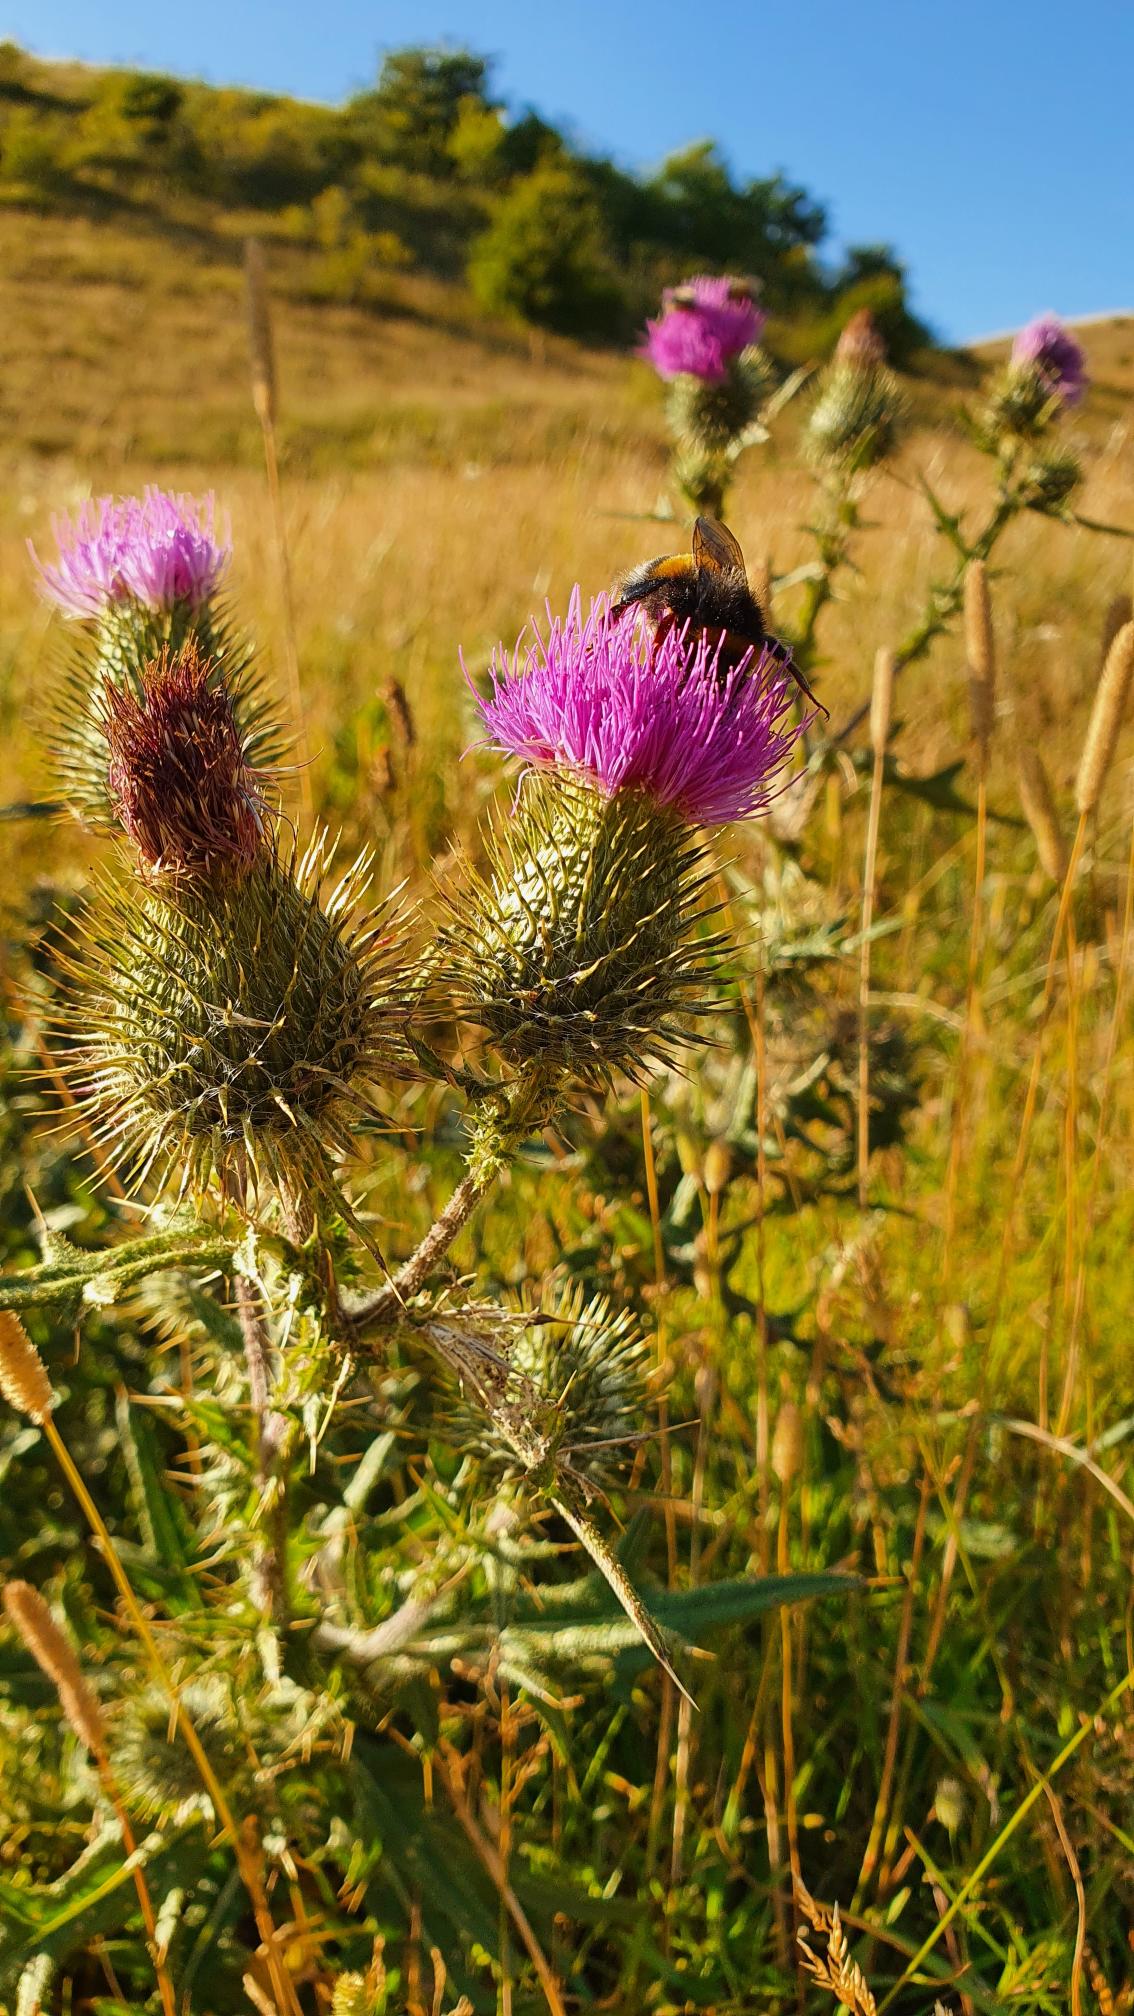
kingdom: Plantae
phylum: Tracheophyta
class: Magnoliopsida
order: Asterales
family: Asteraceae
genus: Cirsium
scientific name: Cirsium vulgare
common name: Horse-tidsel
